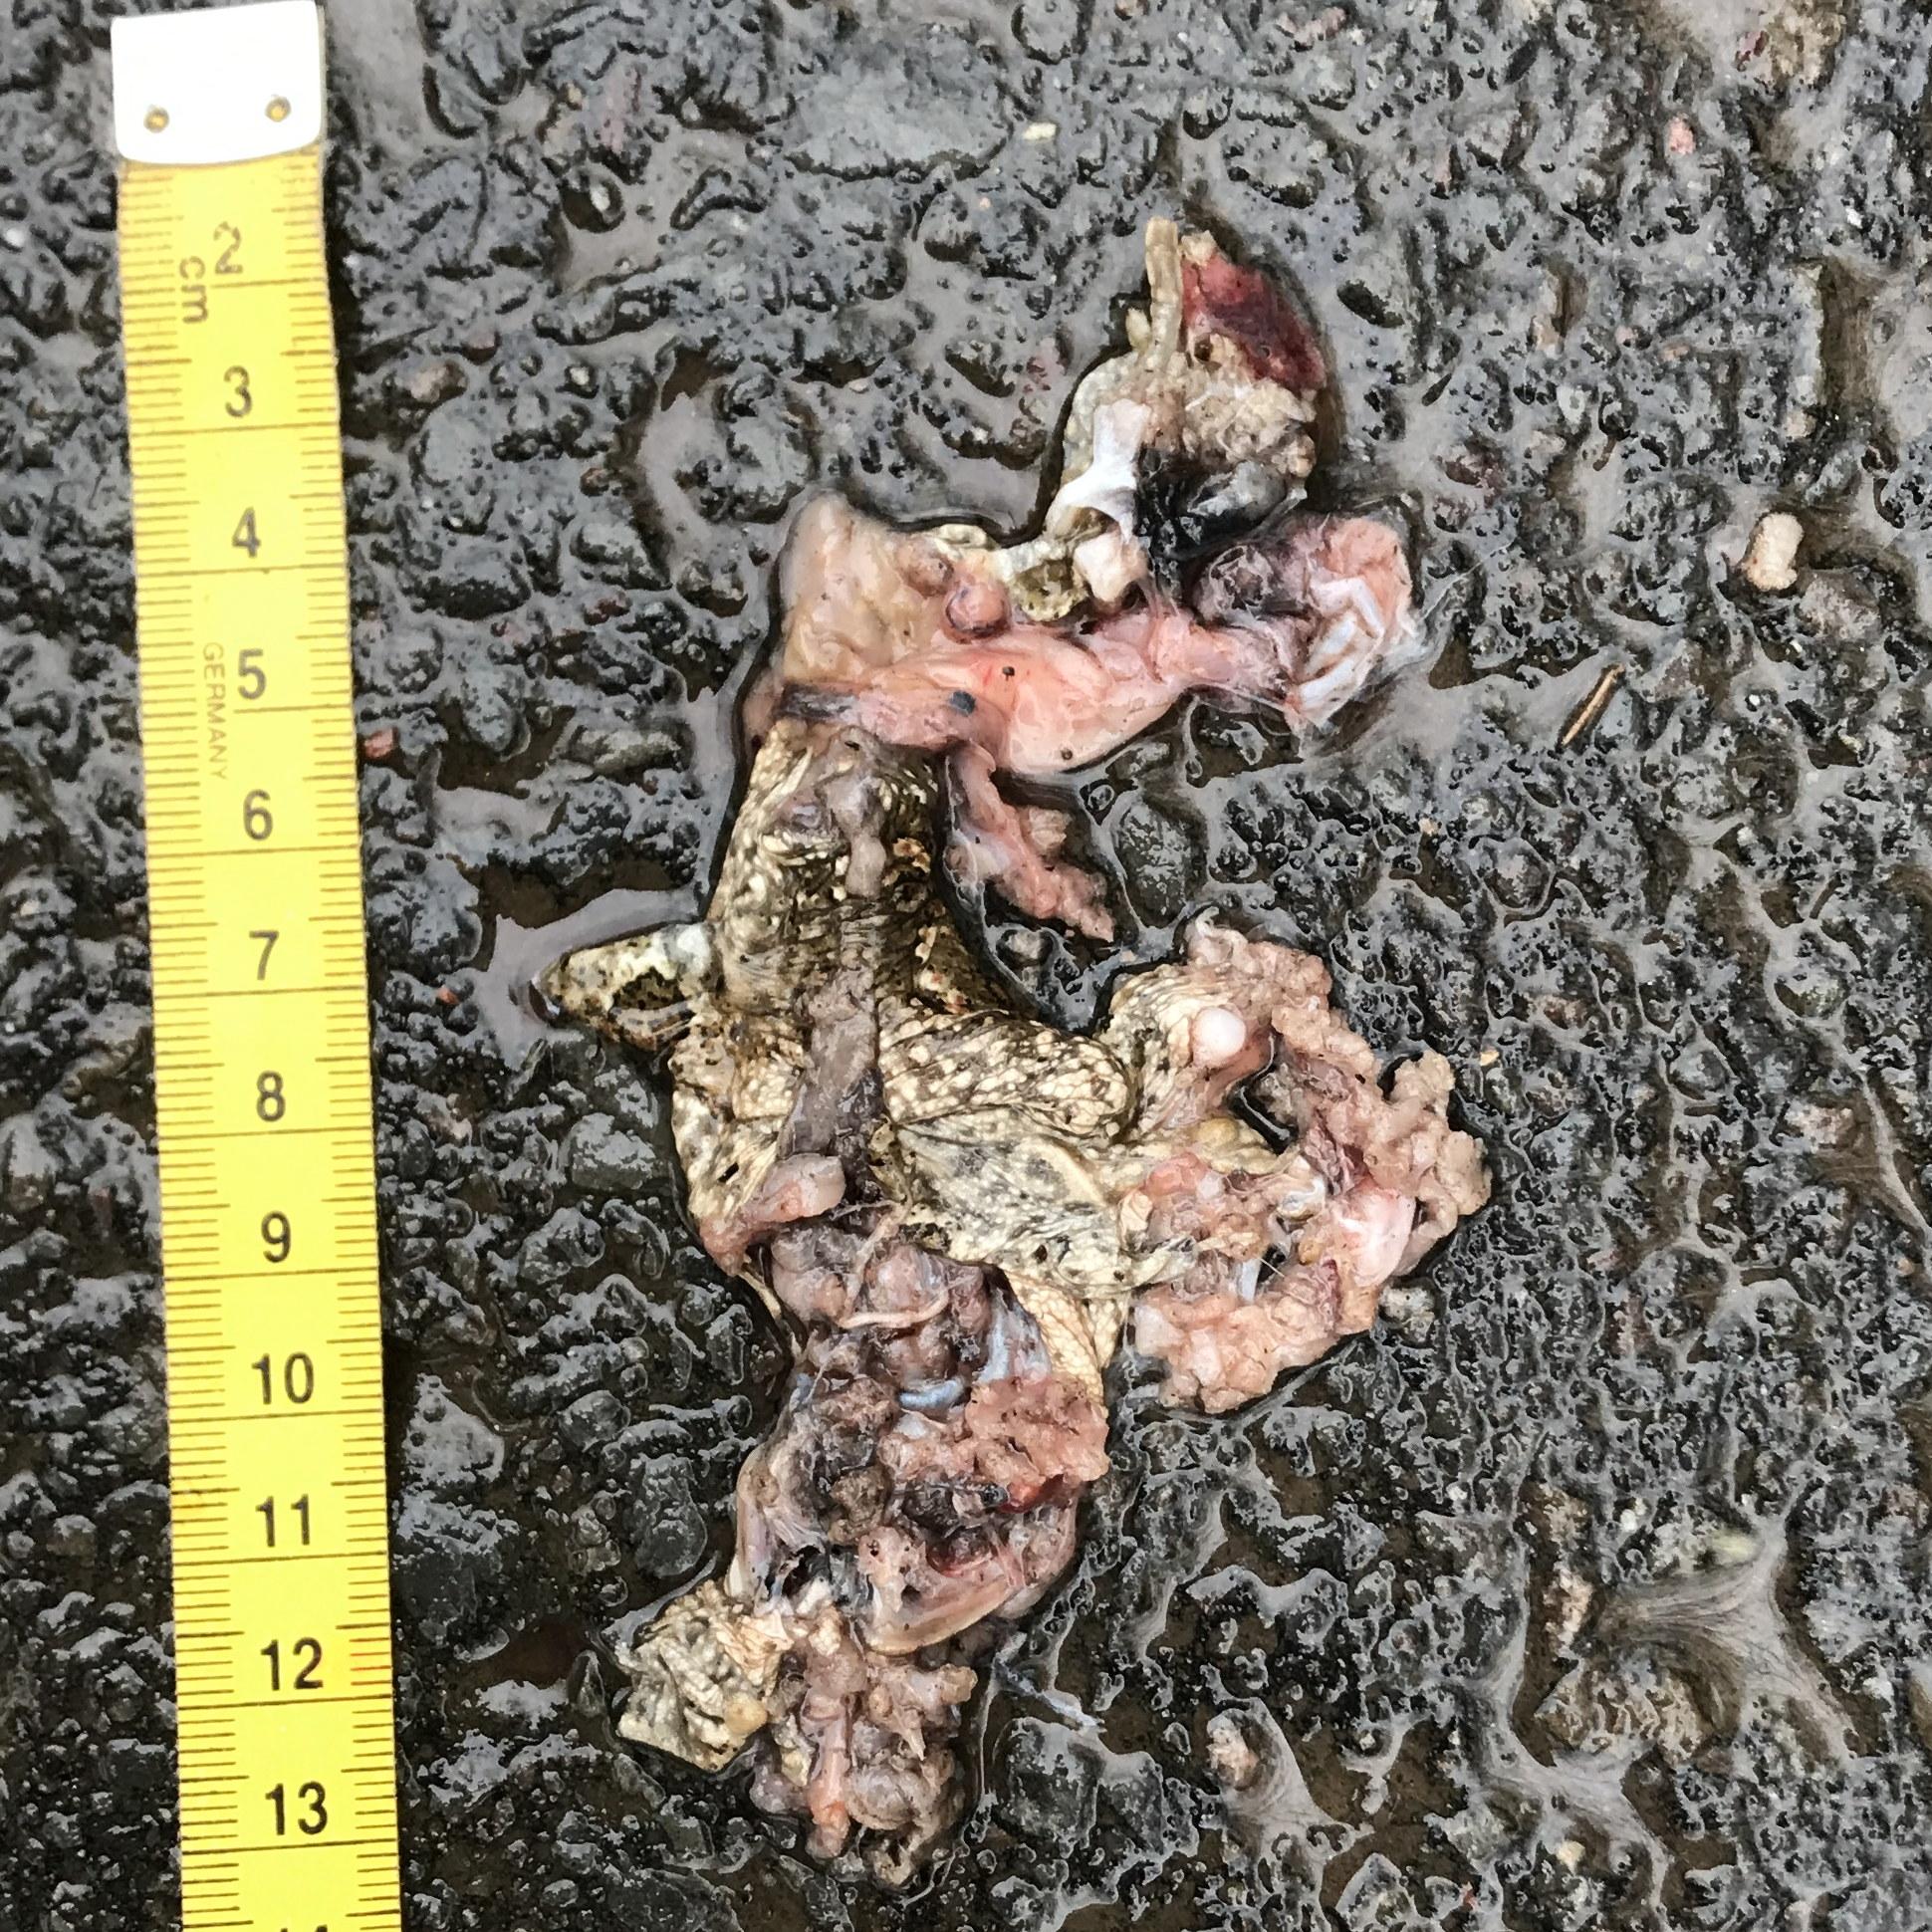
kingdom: Animalia
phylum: Chordata
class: Amphibia
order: Anura
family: Bufonidae
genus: Bufo
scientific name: Bufo bufo
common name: Common toad
